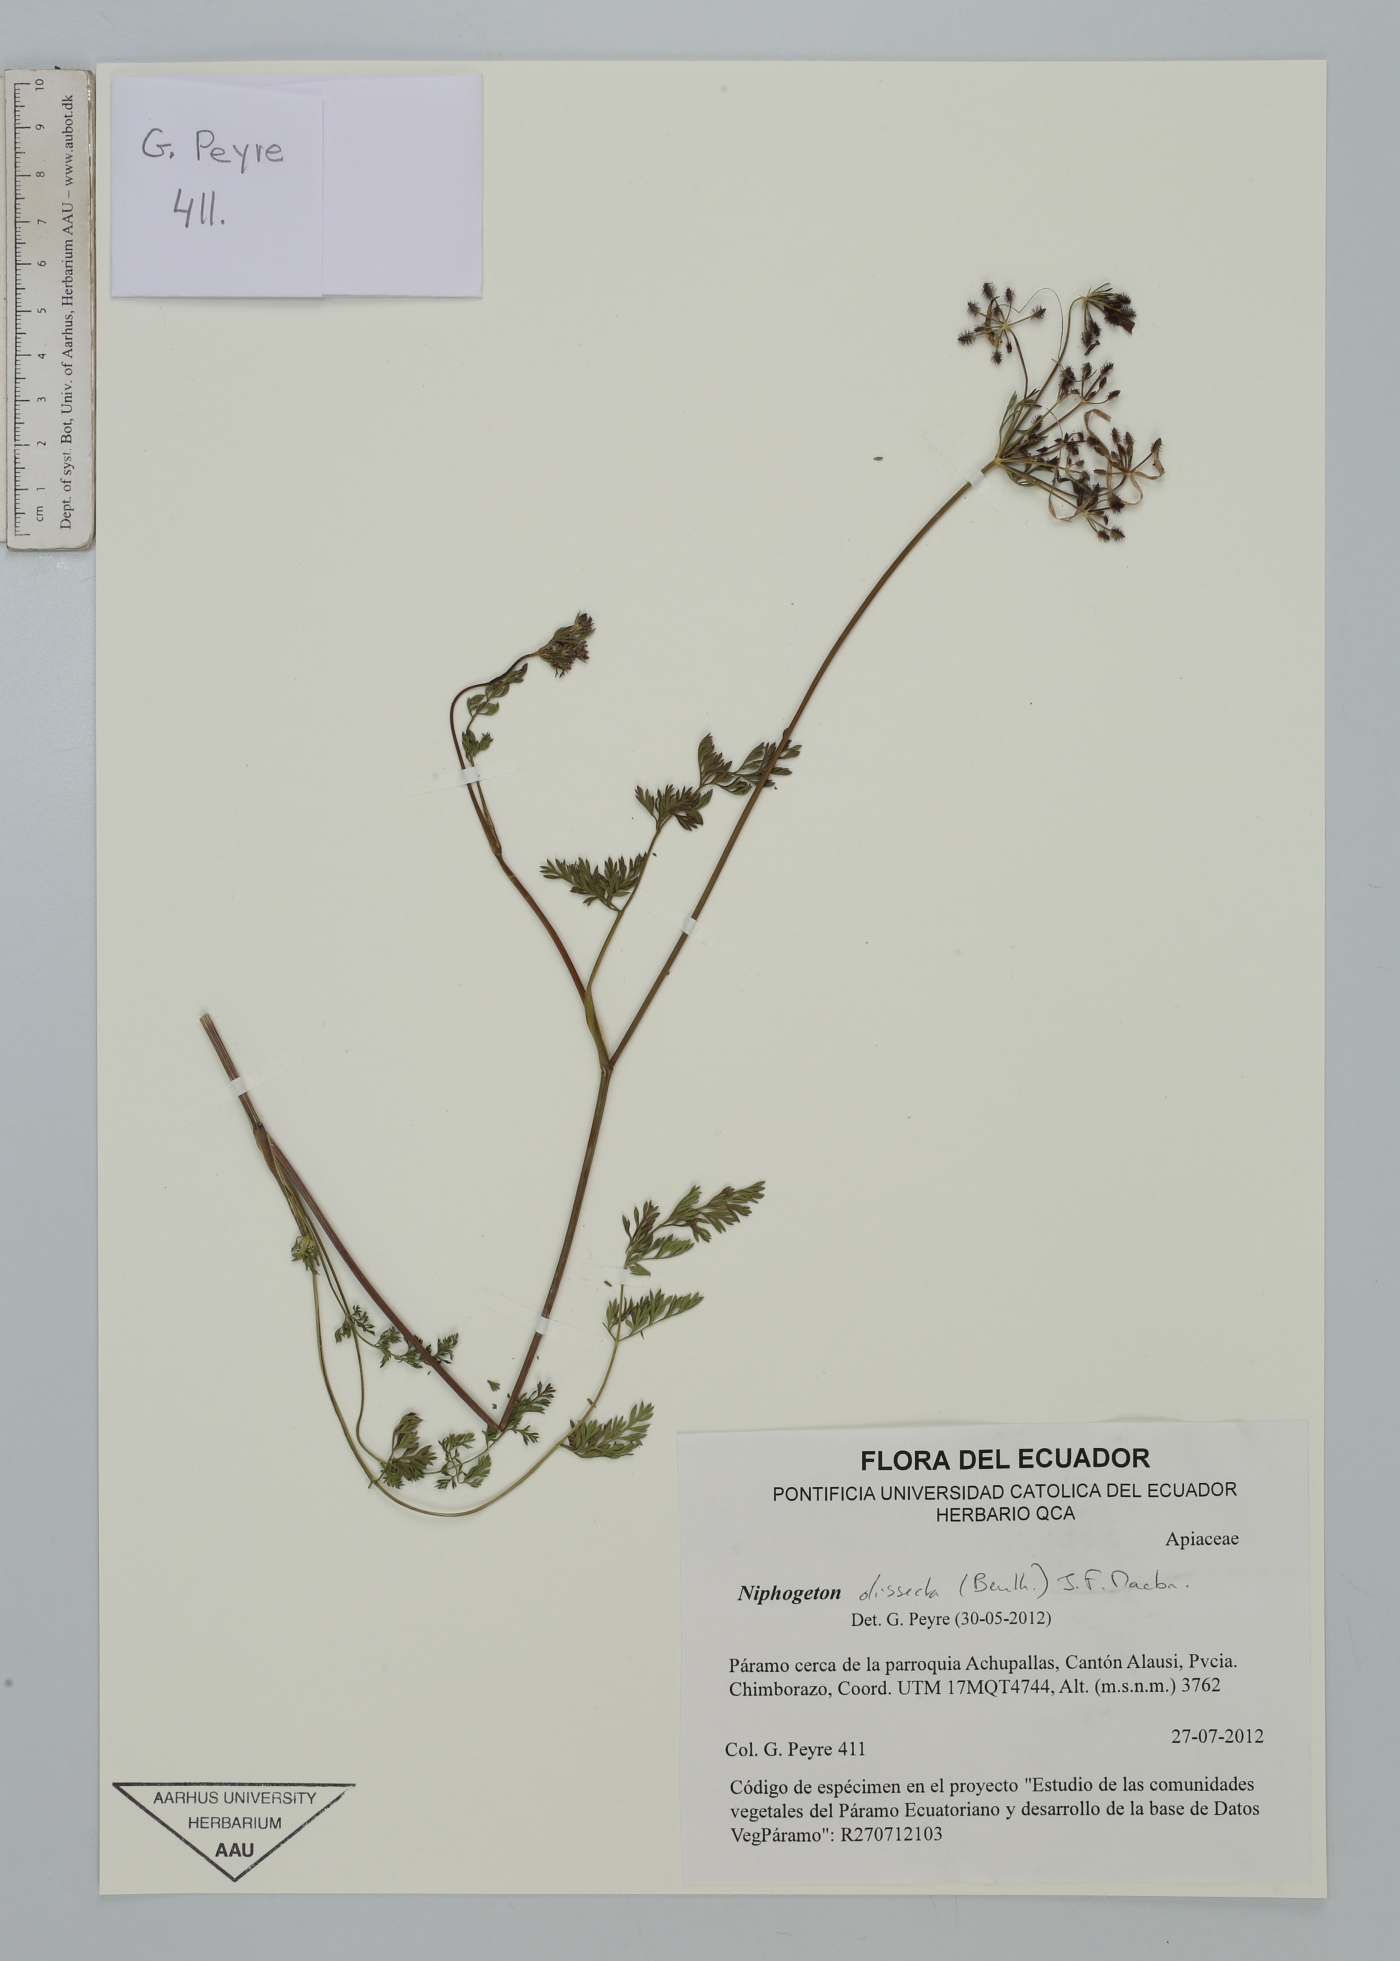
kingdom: Plantae
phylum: Tracheophyta
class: Magnoliopsida
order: Apiales
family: Apiaceae
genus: Niphogeton
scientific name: Niphogeton dissecta
